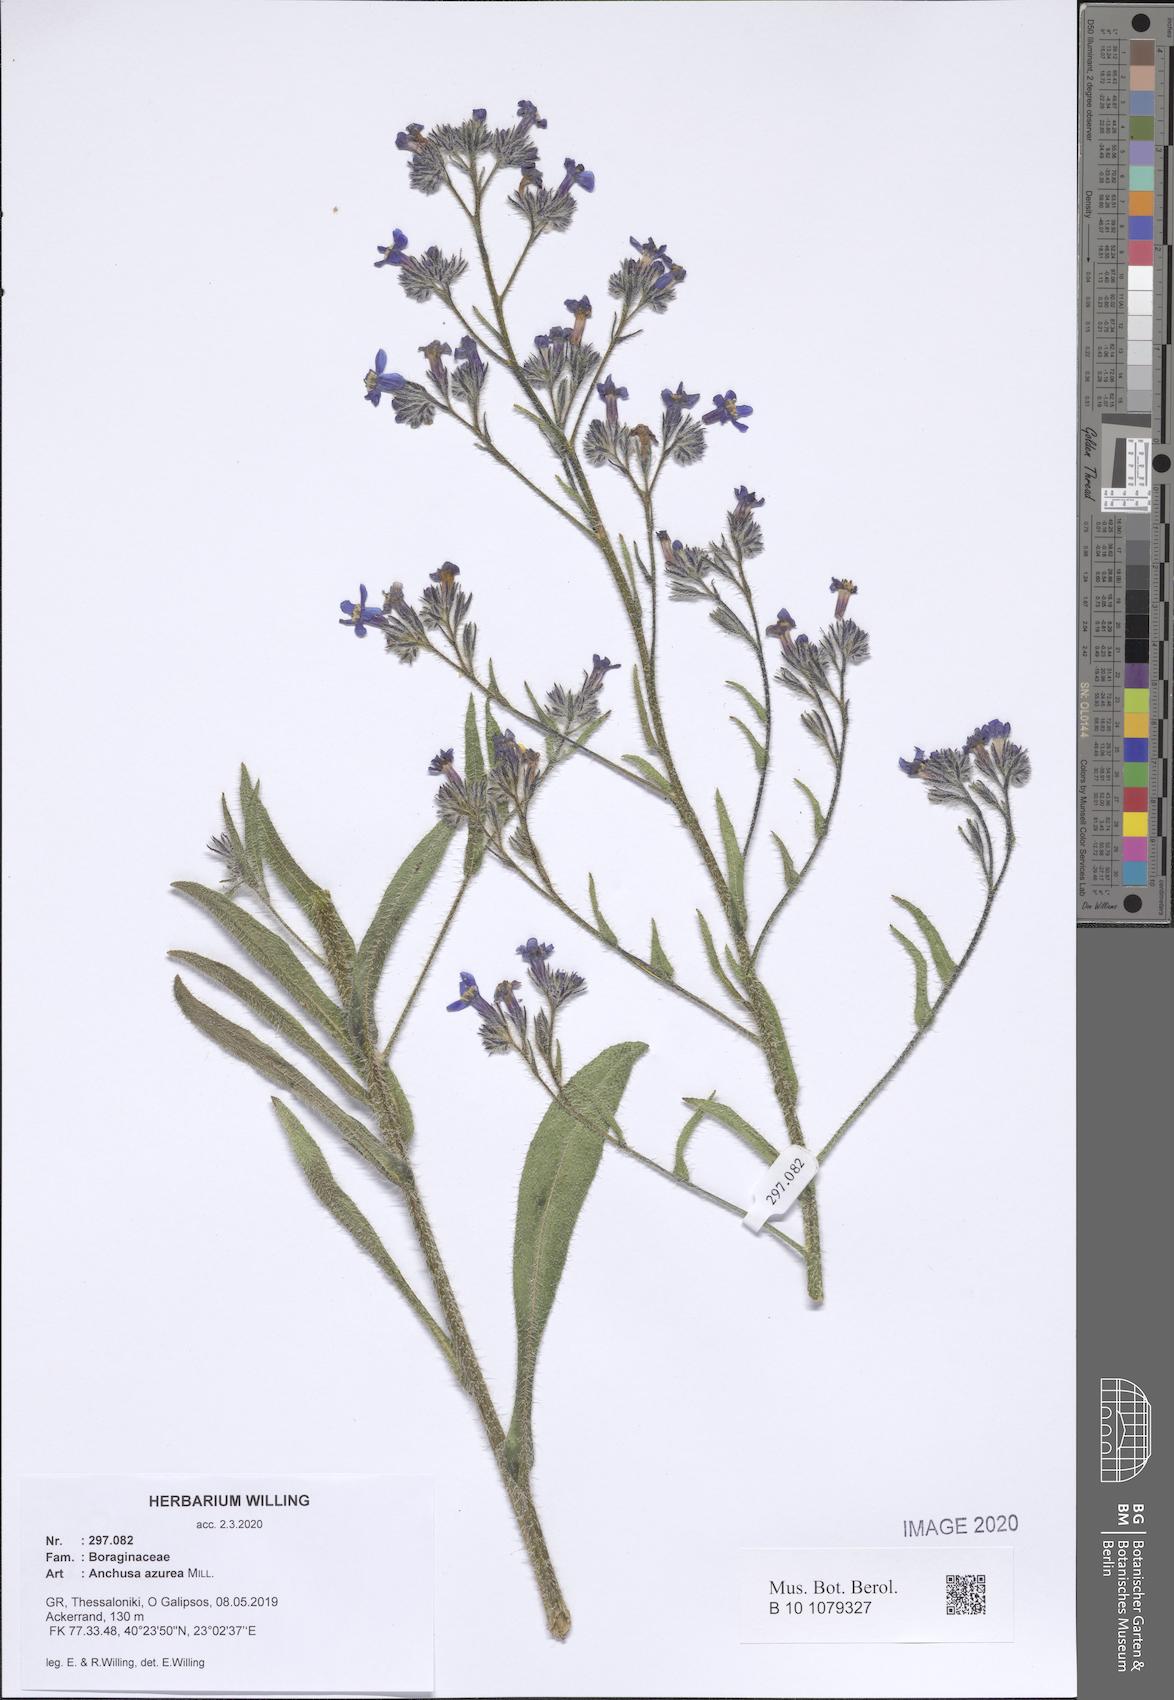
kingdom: Plantae
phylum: Tracheophyta
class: Magnoliopsida
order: Boraginales
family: Boraginaceae
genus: Anchusa
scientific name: Anchusa azurea
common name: Garden anchusa
